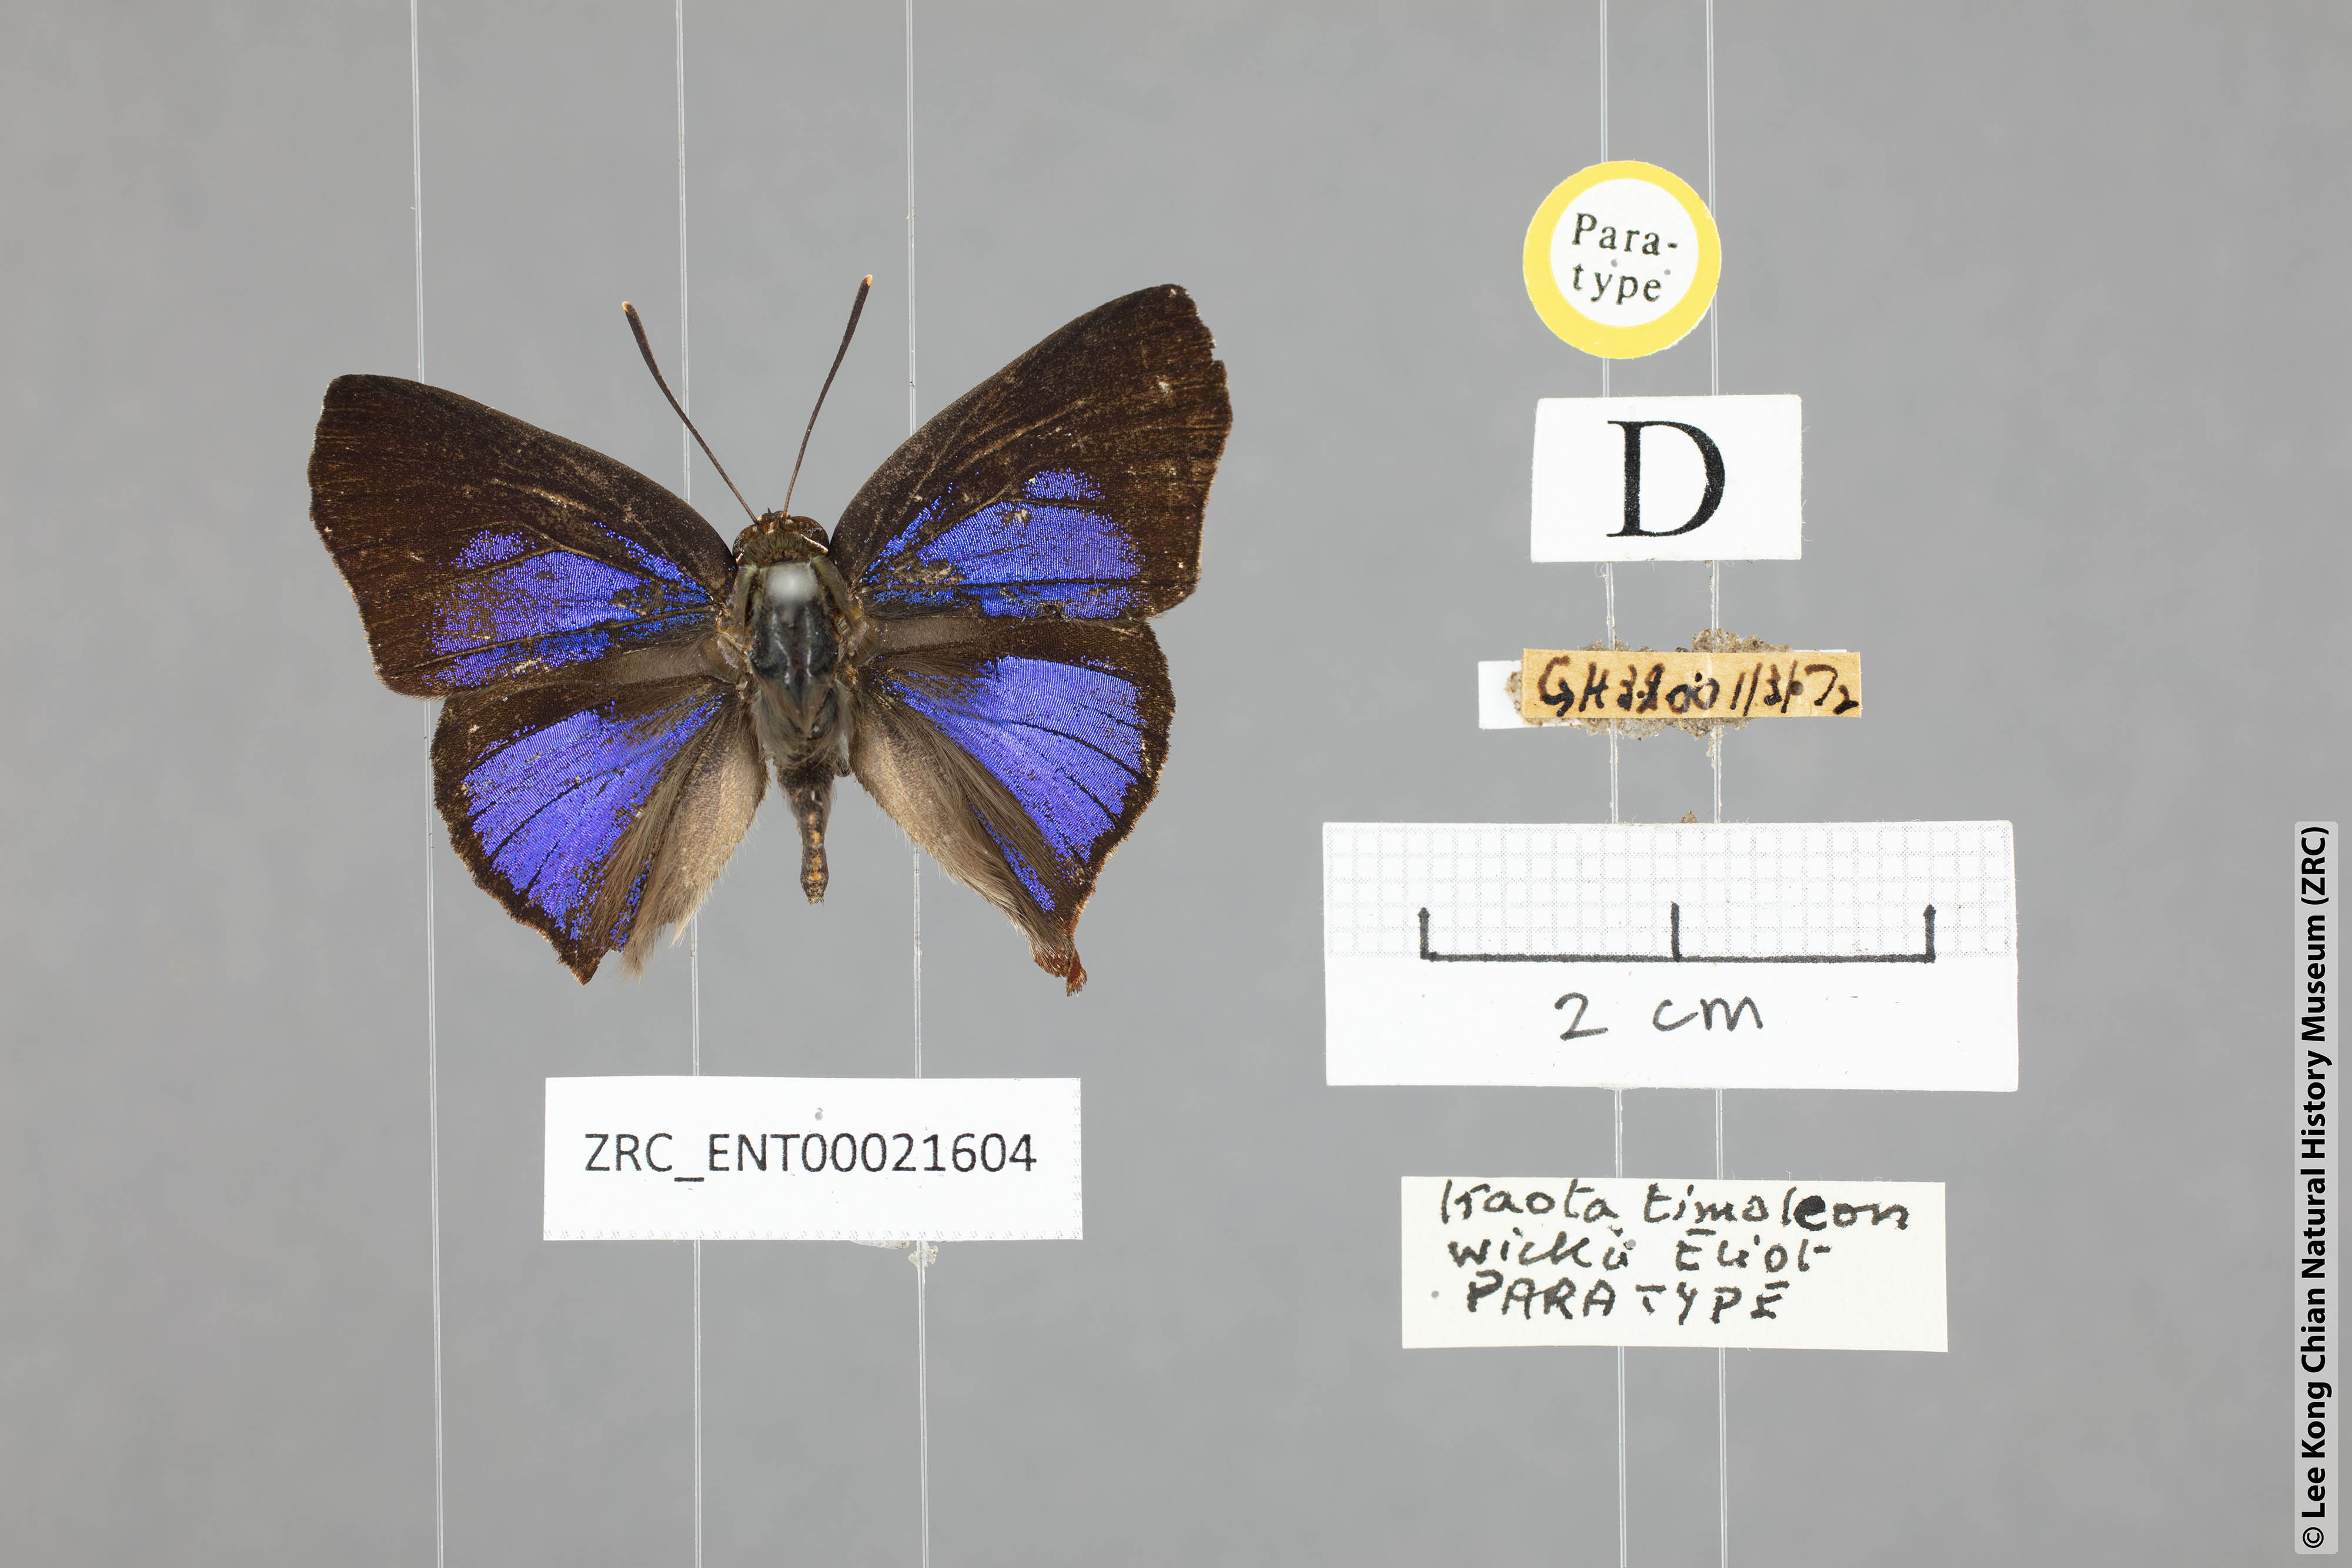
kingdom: Animalia
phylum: Arthropoda
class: Insecta
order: Lepidoptera
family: Lycaenidae
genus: Iraota
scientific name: Iraota timoleon
